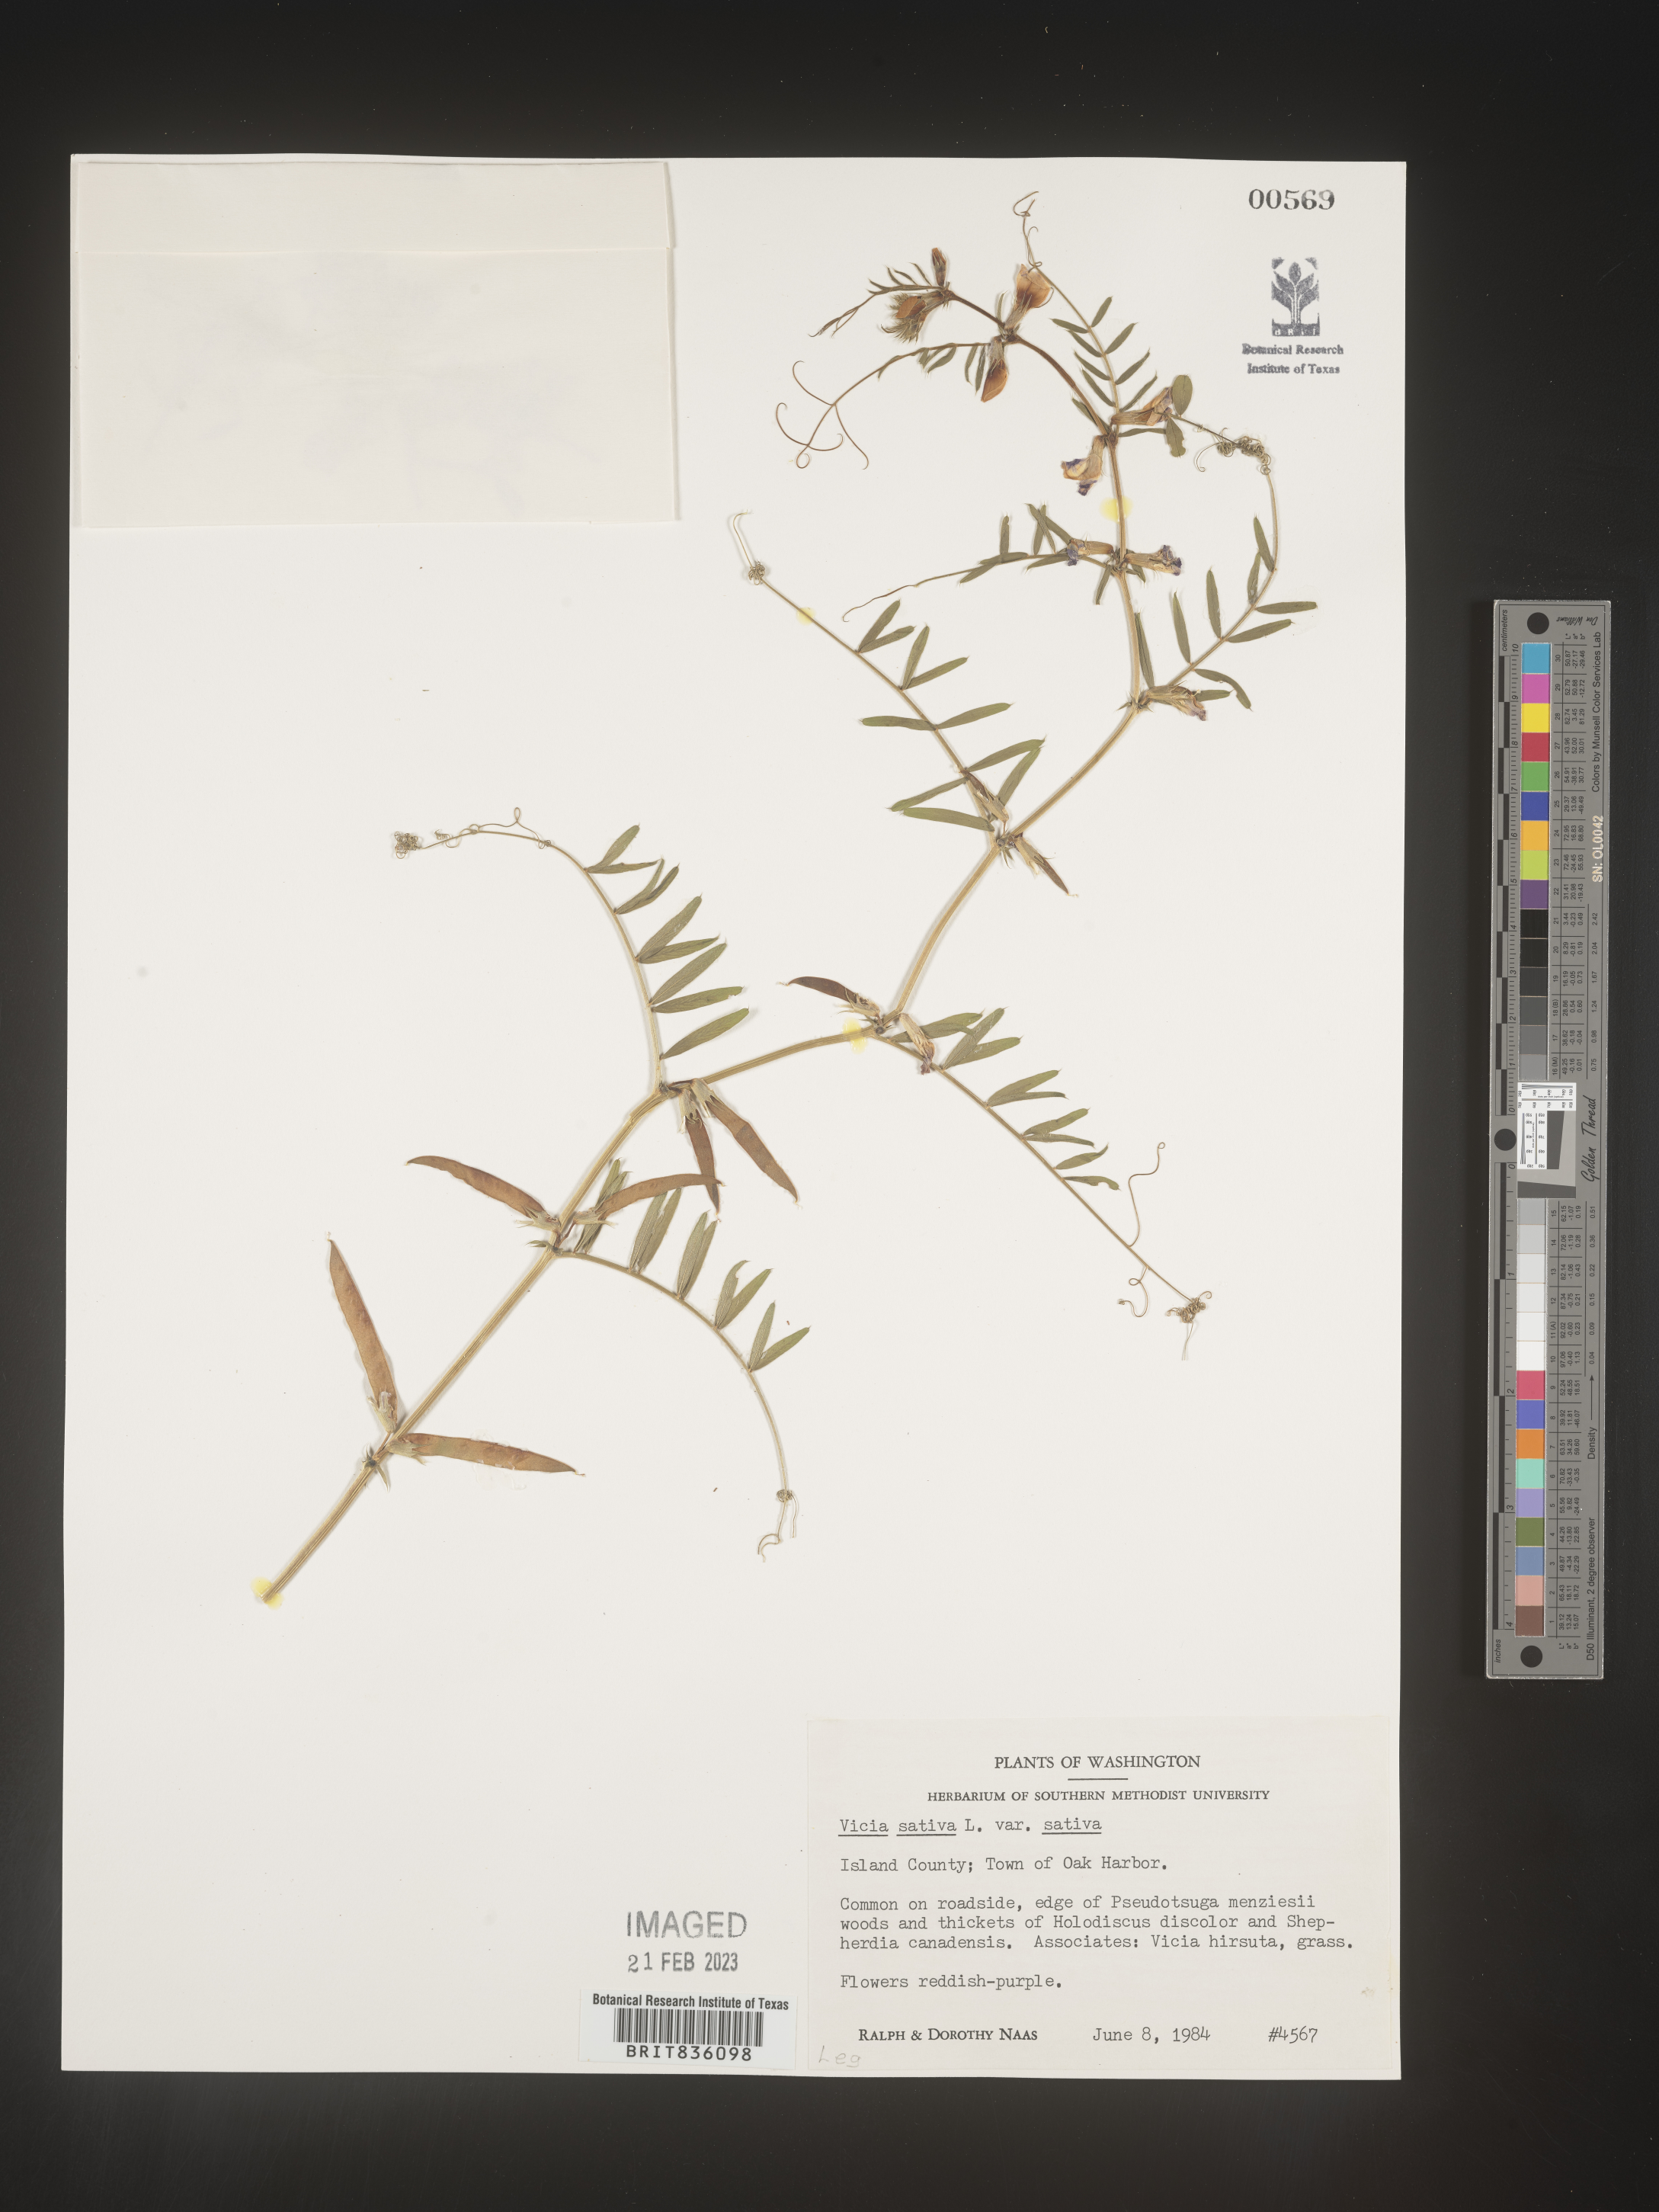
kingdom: Plantae
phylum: Tracheophyta
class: Magnoliopsida
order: Fabales
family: Fabaceae
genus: Vicia
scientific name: Vicia sativa
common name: Garden vetch
